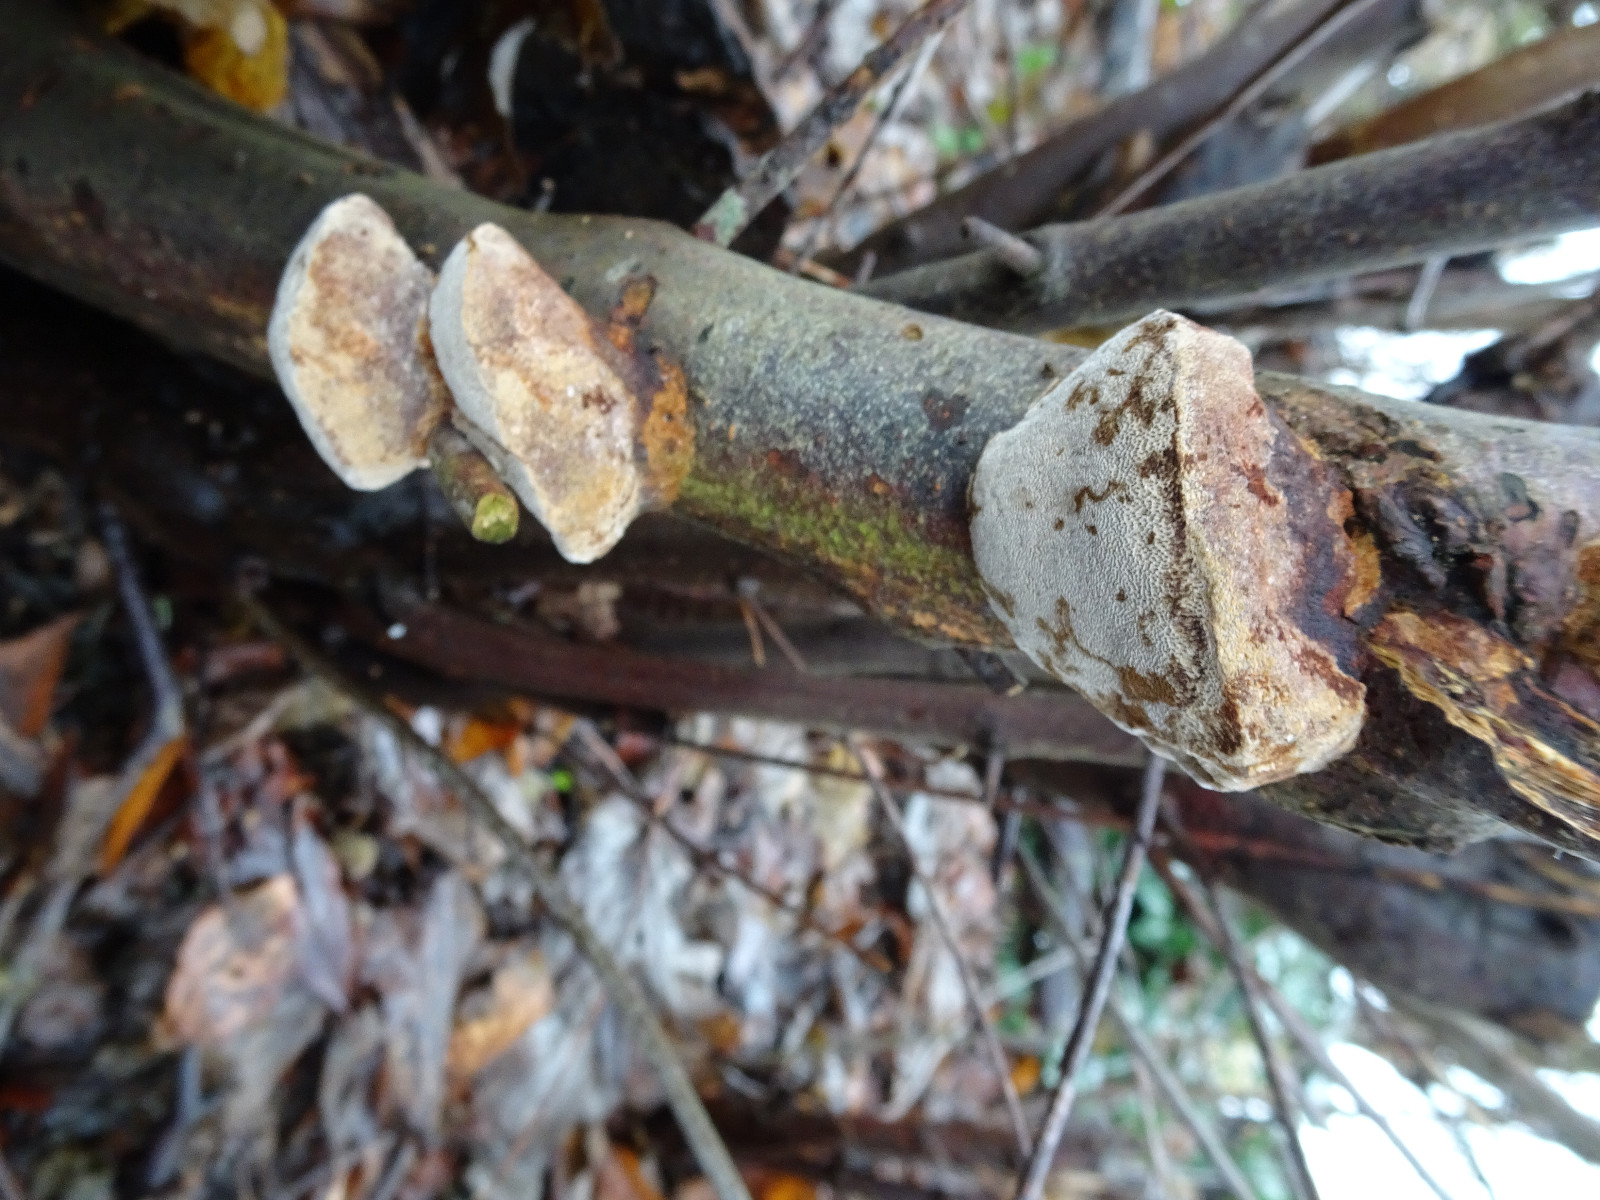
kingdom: Fungi
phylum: Basidiomycota
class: Agaricomycetes
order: Hymenochaetales
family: Hymenochaetaceae
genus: Phellinus
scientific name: Phellinus pomaceus
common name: blomme-ildporesvamp
